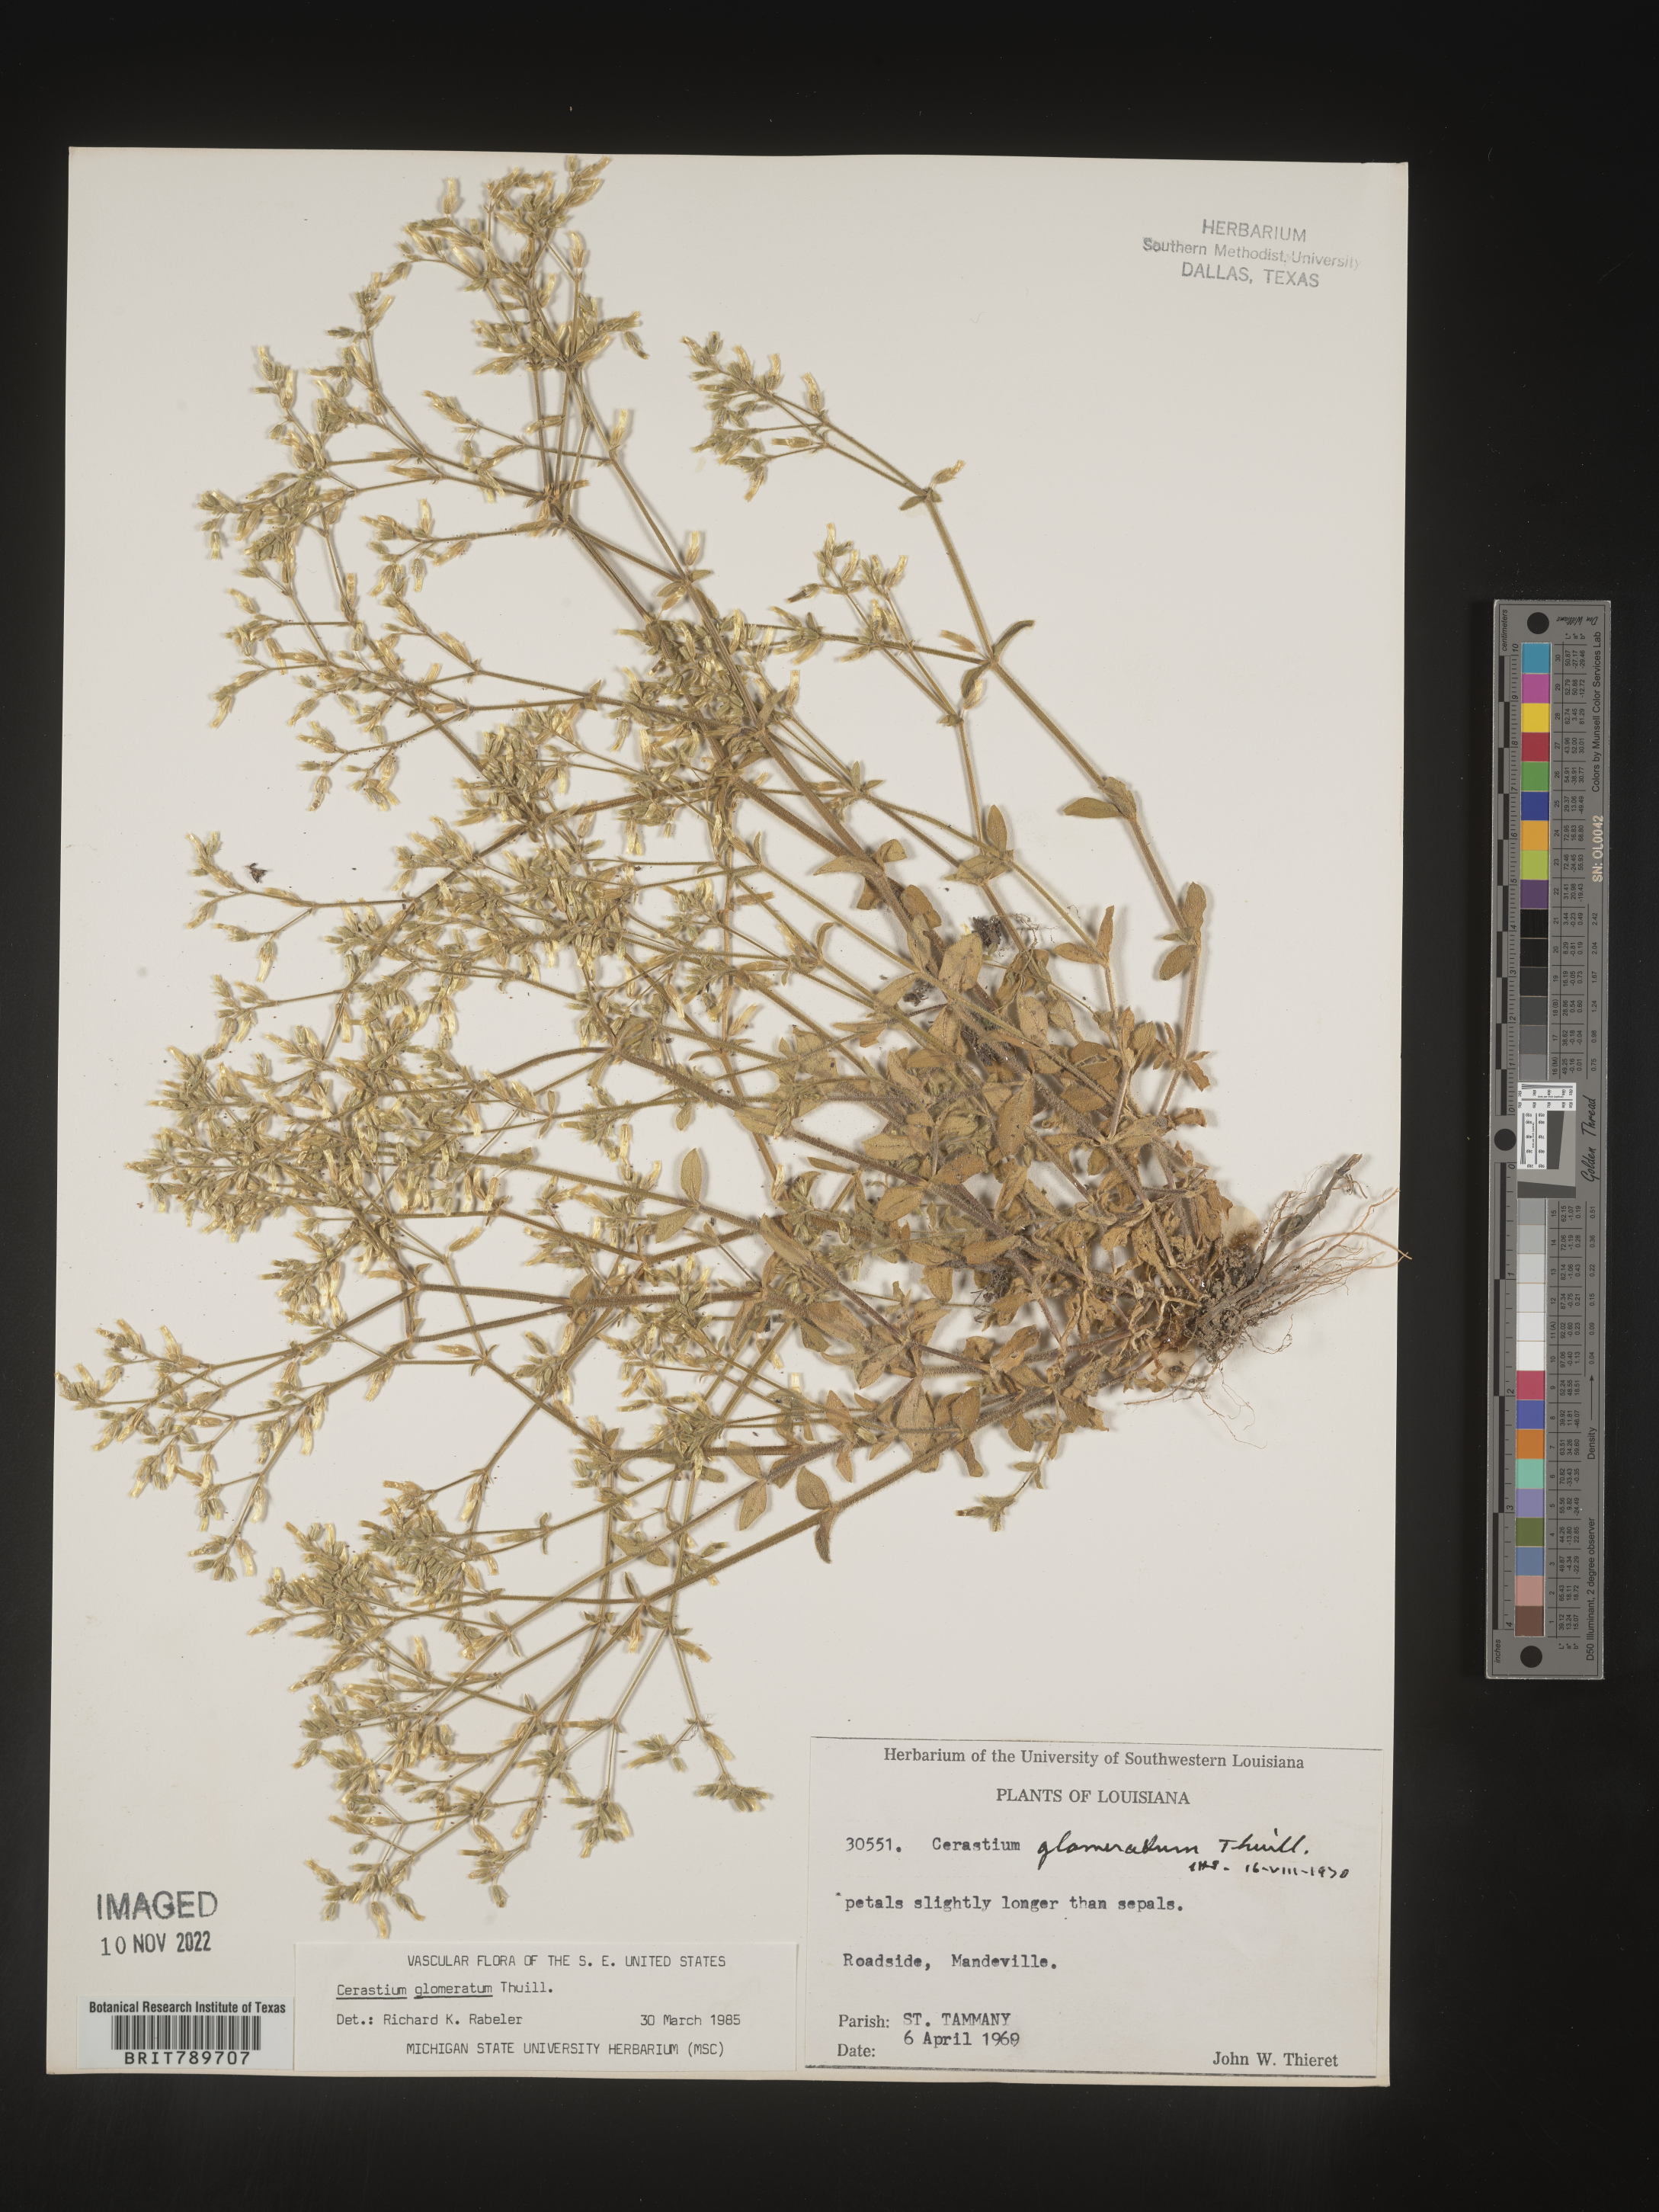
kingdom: Plantae
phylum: Tracheophyta
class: Magnoliopsida
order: Caryophyllales
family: Caryophyllaceae
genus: Cerastium
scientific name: Cerastium glomeratum
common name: Sticky chickweed
